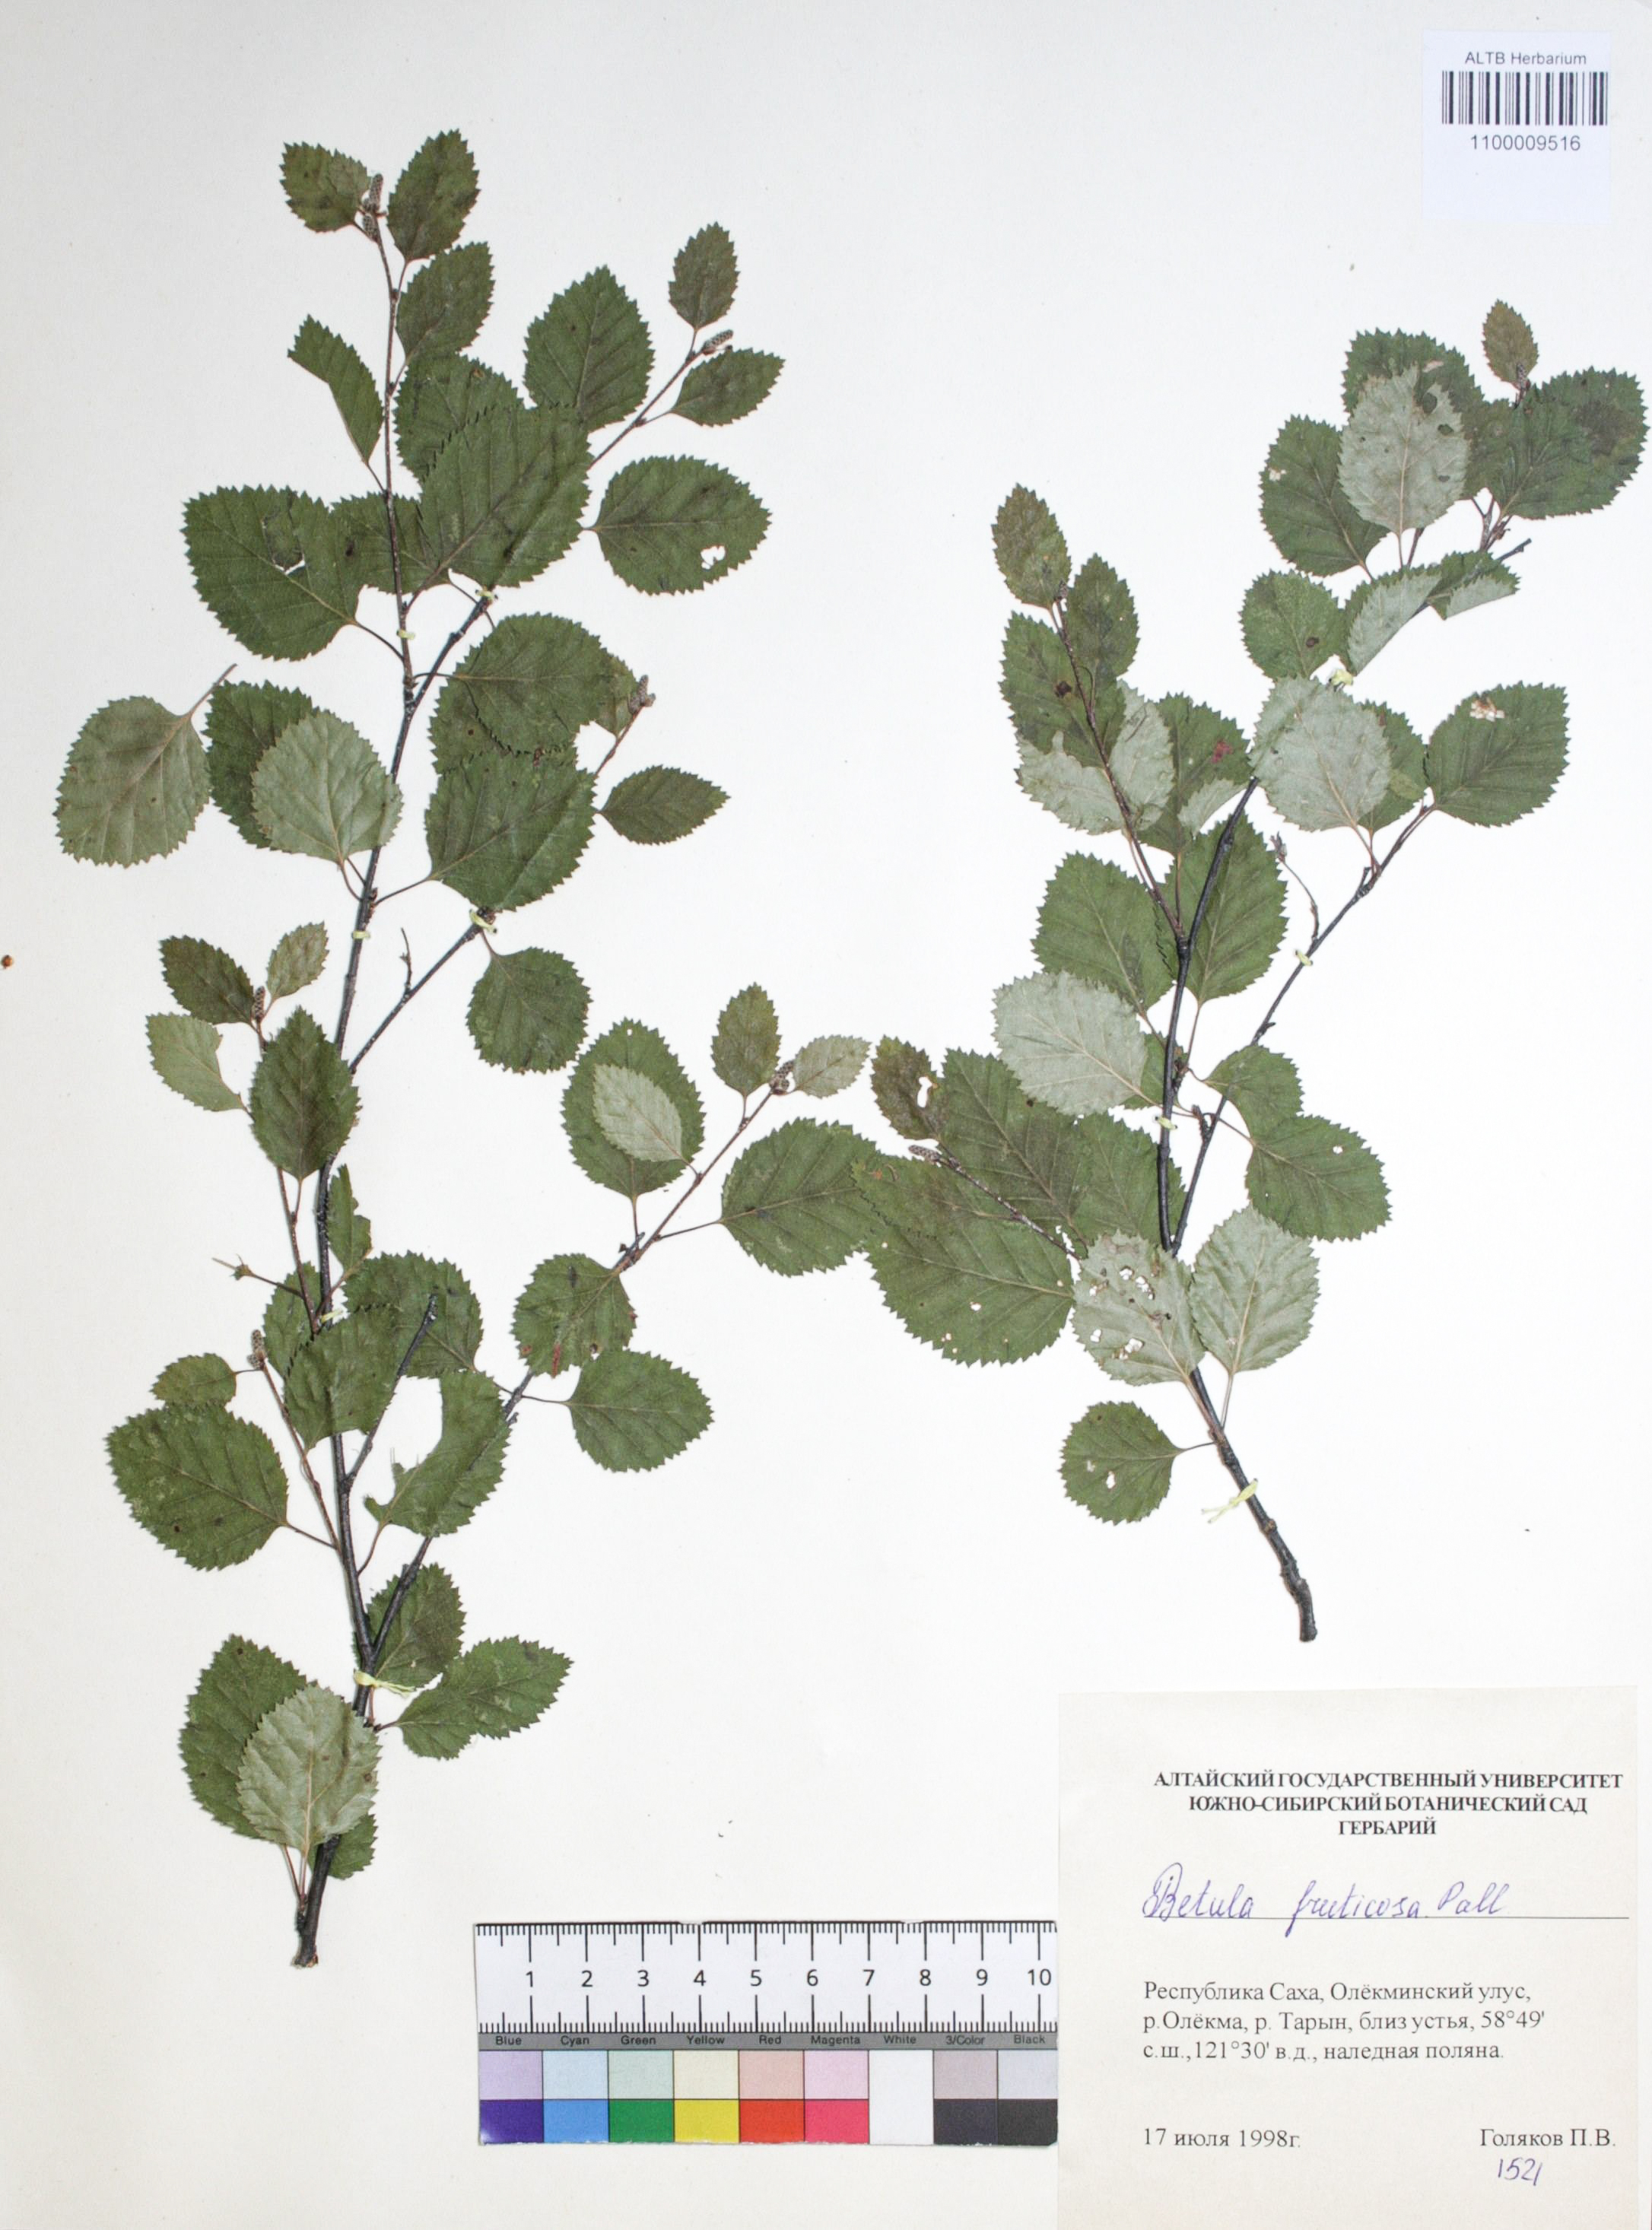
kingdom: Plantae
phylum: Tracheophyta
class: Magnoliopsida
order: Fagales
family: Betulaceae
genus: Betula
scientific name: Betula fruticosa
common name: Japanese bog birch
